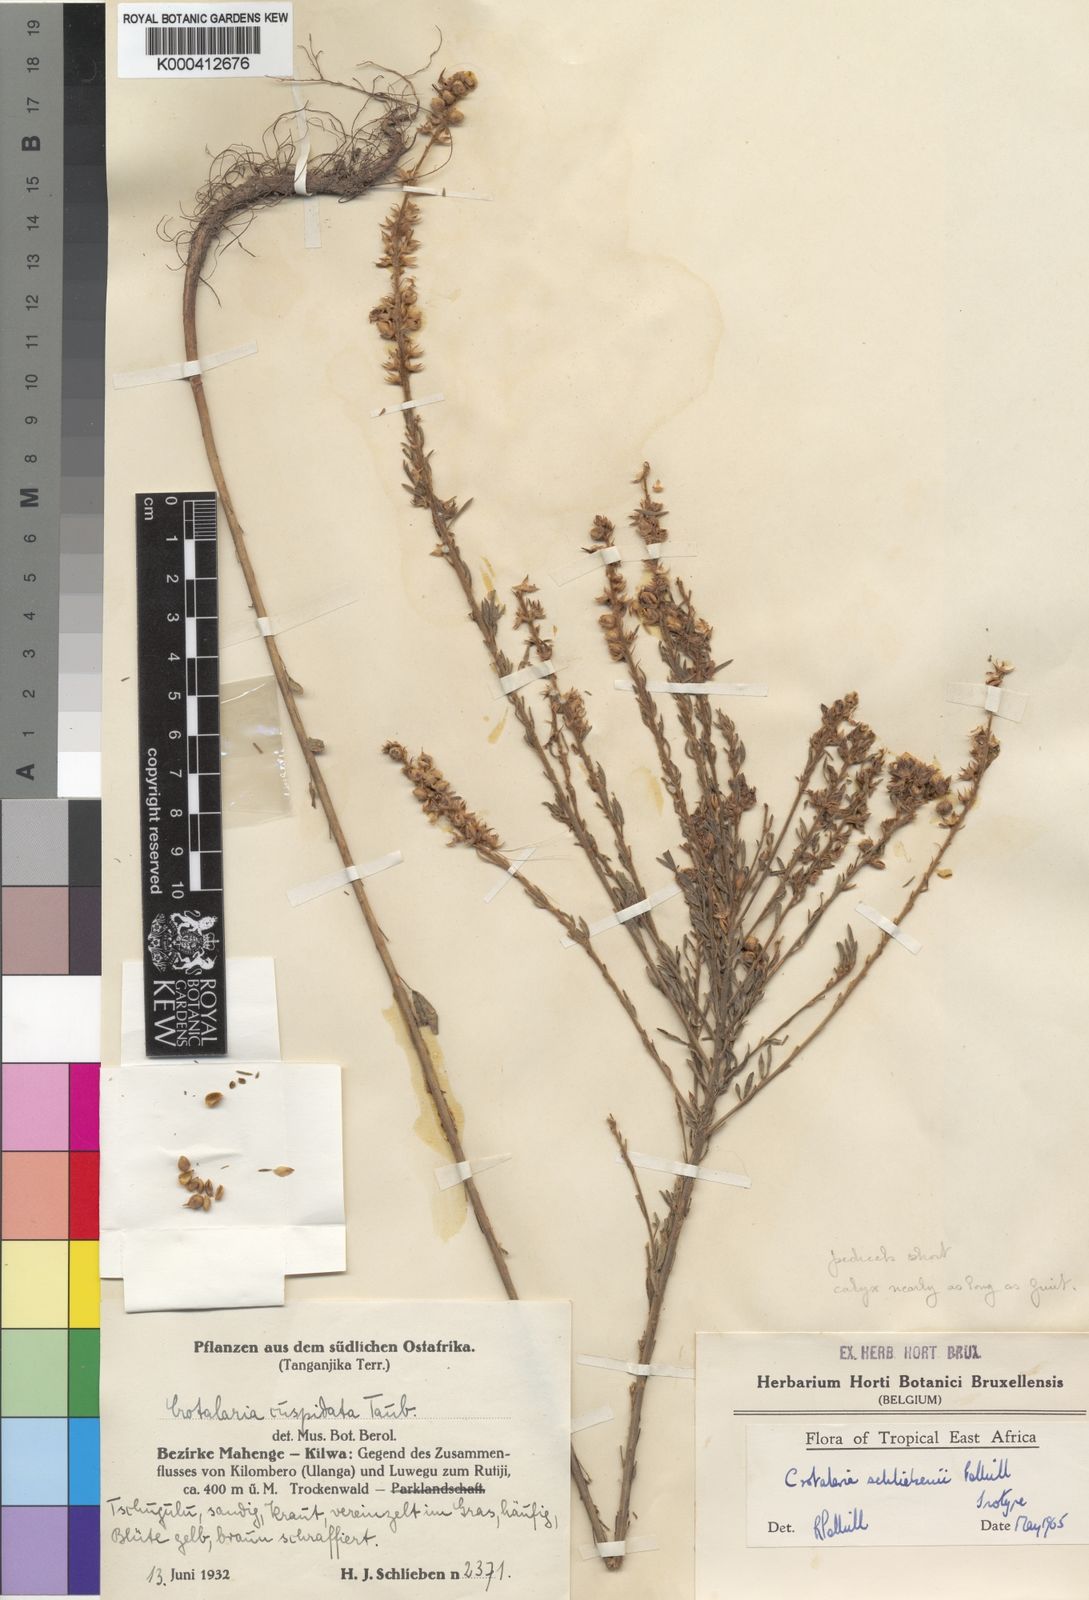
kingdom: Plantae
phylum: Tracheophyta
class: Magnoliopsida
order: Fabales
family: Fabaceae
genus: Crotalaria
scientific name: Crotalaria schliebenii
